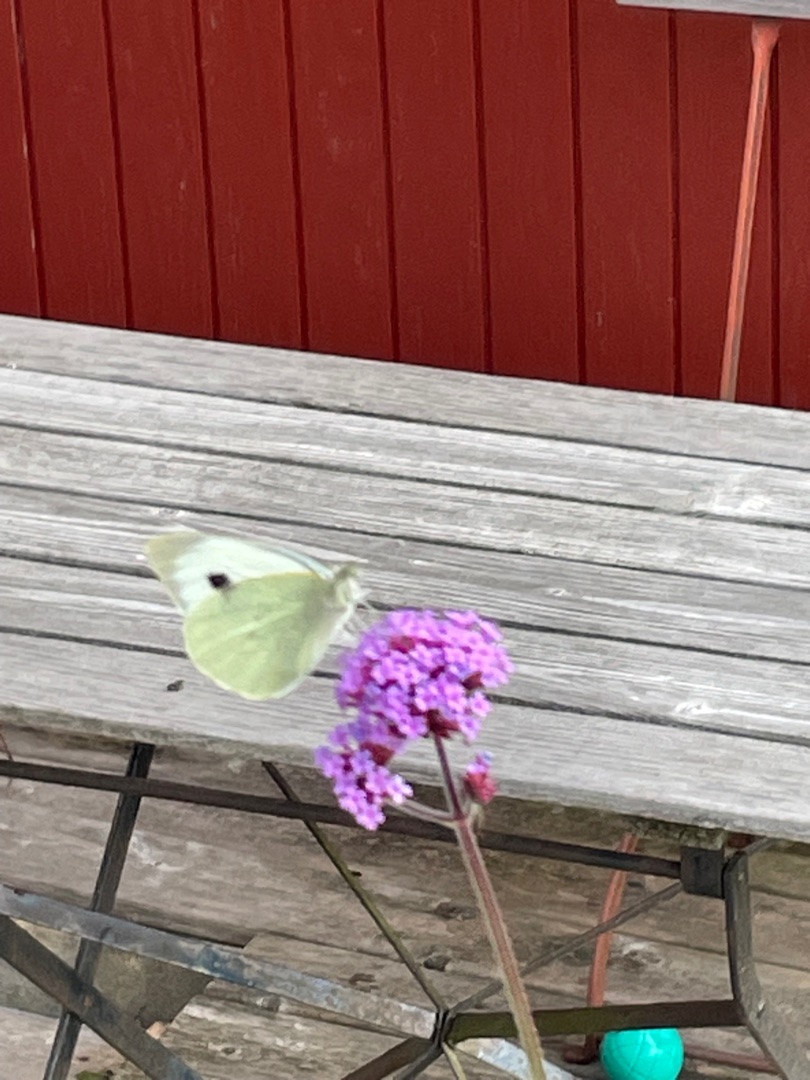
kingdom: Animalia
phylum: Arthropoda
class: Insecta
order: Lepidoptera
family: Pieridae
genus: Pieris
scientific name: Pieris brassicae
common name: Stor kålsommerfugl
